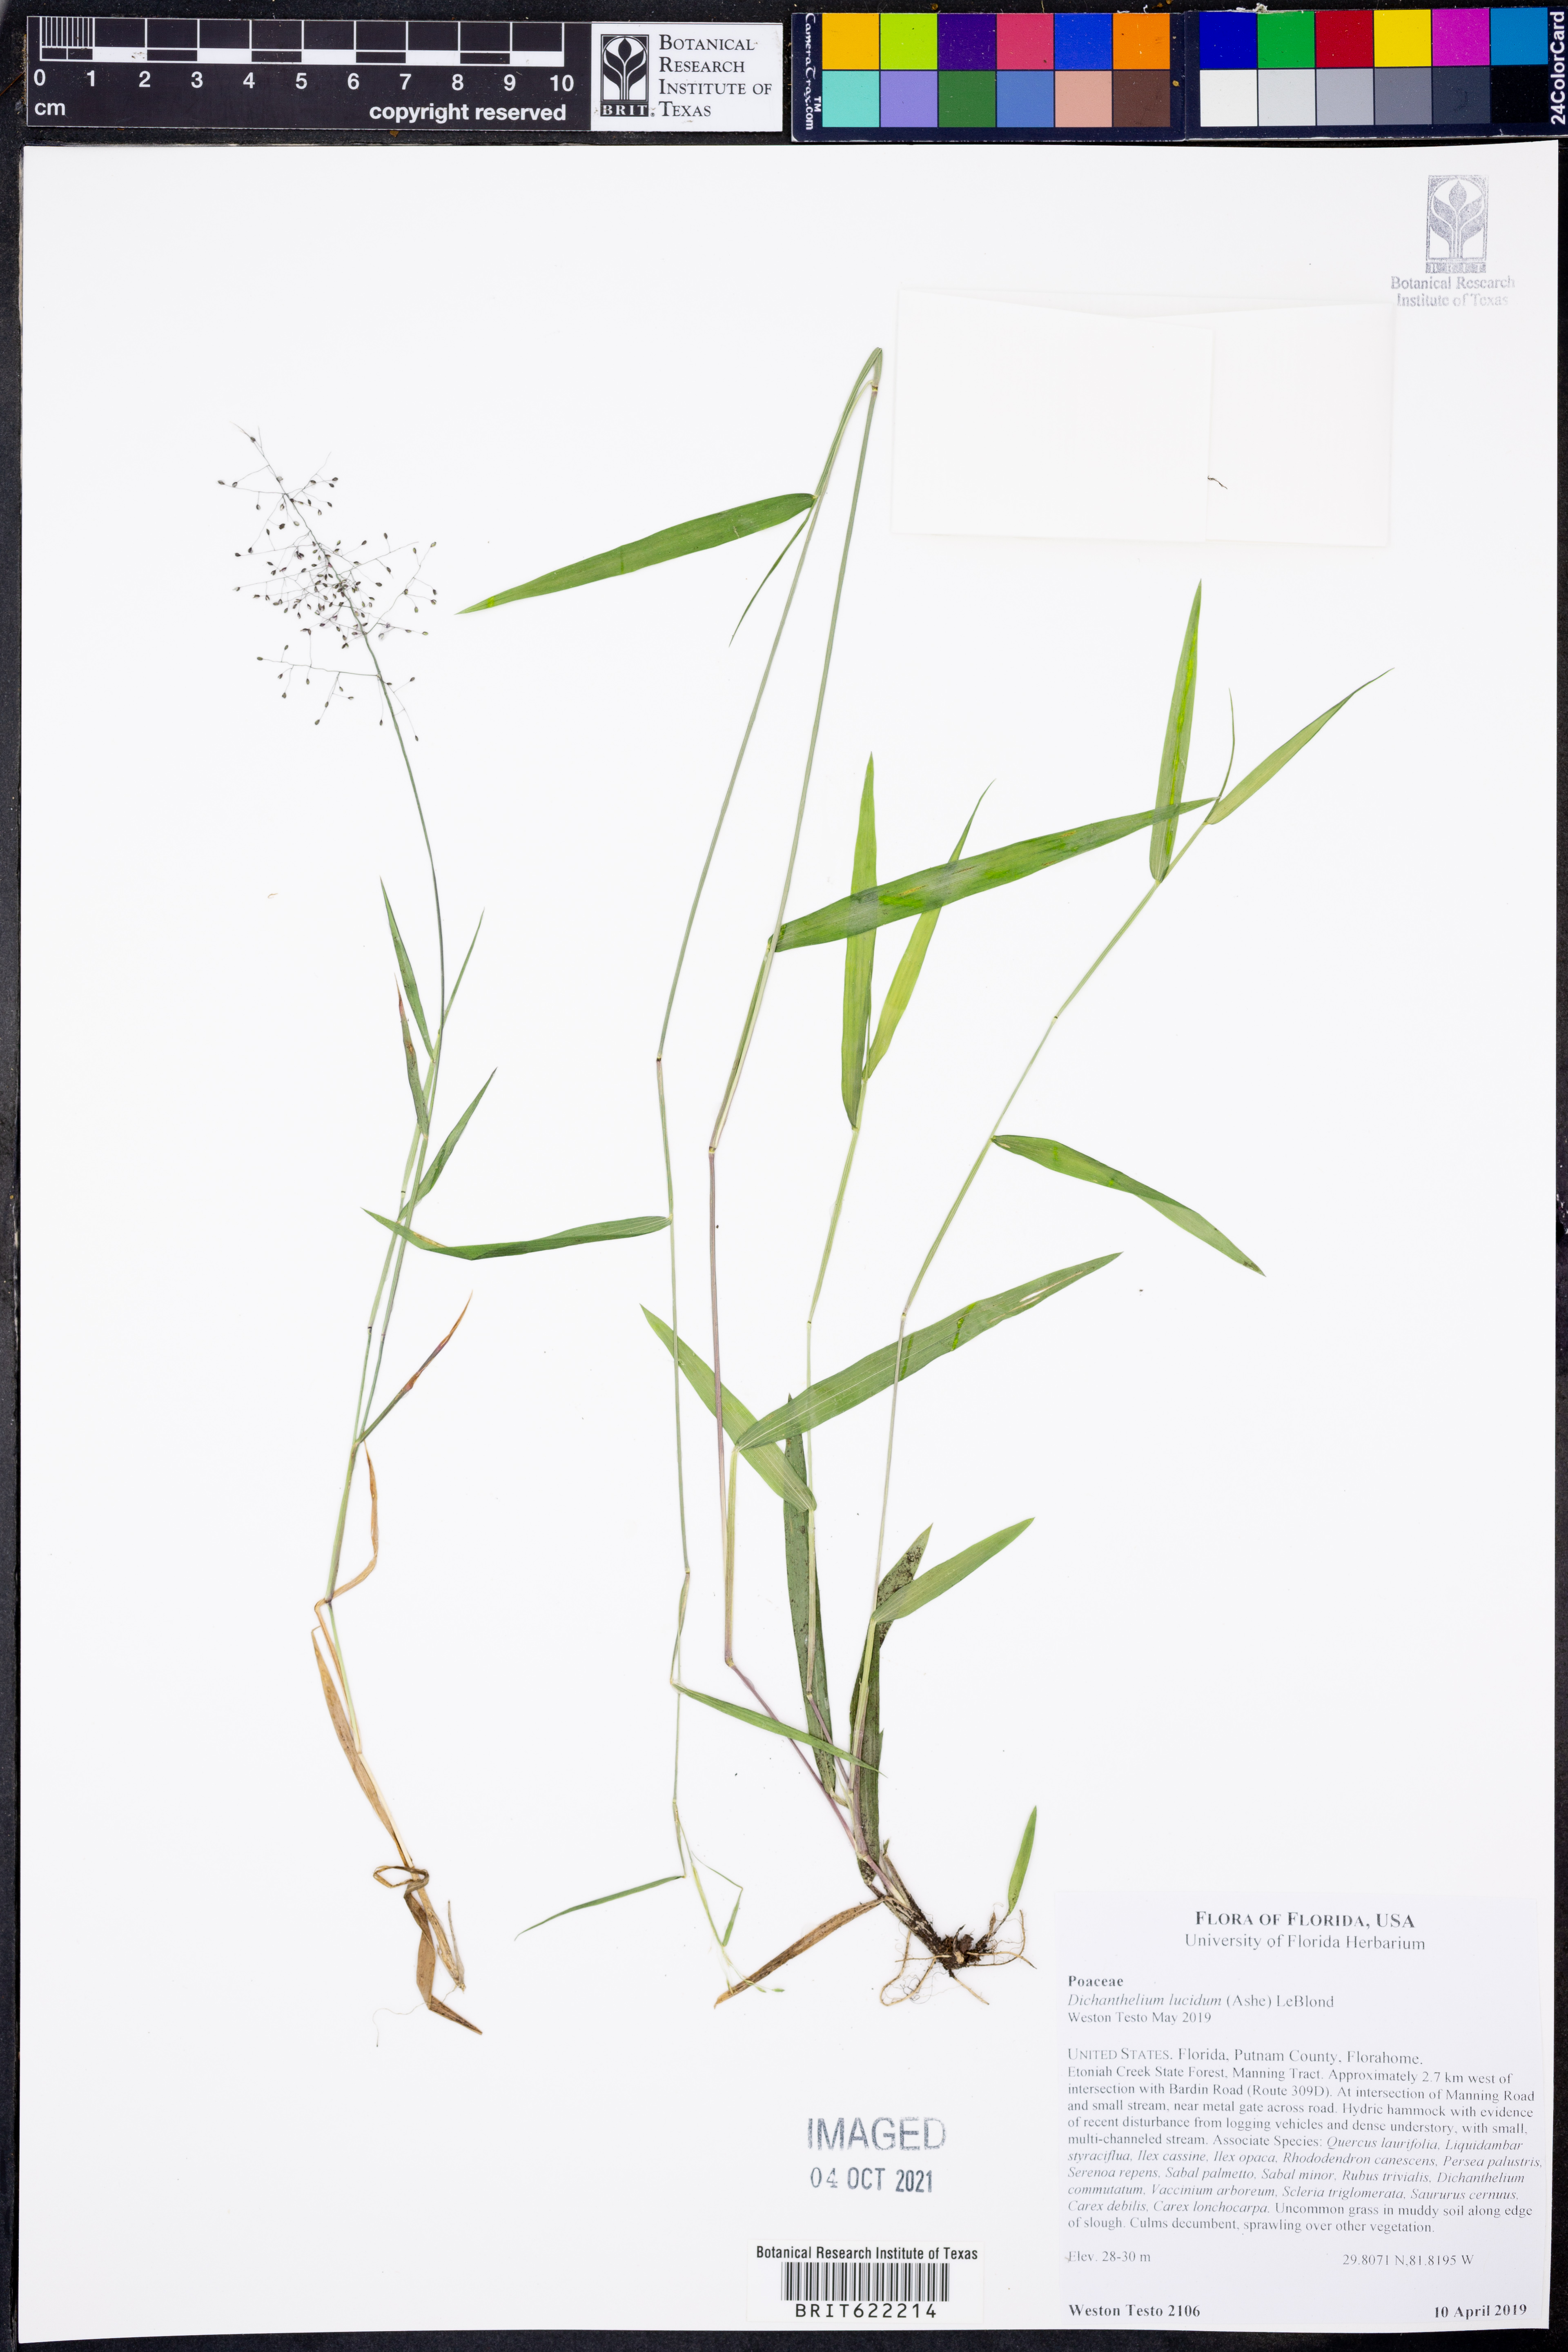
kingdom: Plantae
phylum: Tracheophyta
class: Liliopsida
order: Poales
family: Poaceae
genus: Dichanthelium
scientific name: Dichanthelium lucidum
